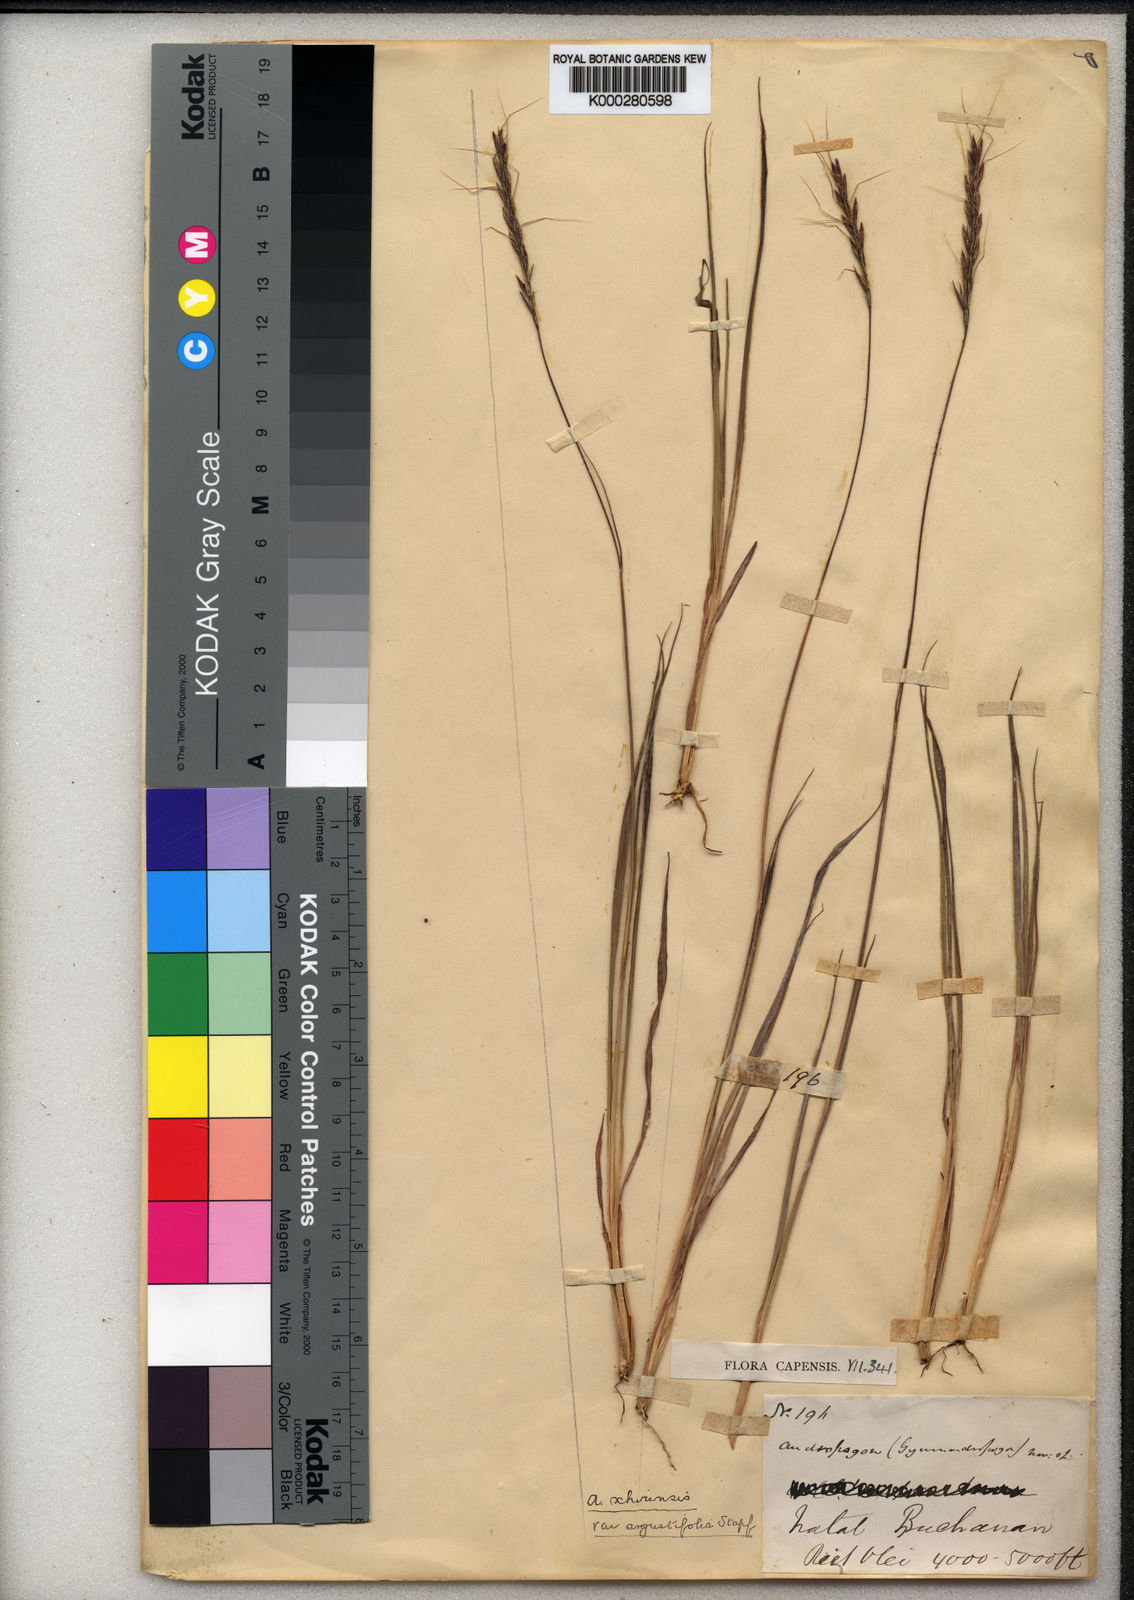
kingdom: Plantae
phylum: Tracheophyta
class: Liliopsida
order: Poales
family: Poaceae
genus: Andropogon
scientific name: Andropogon
